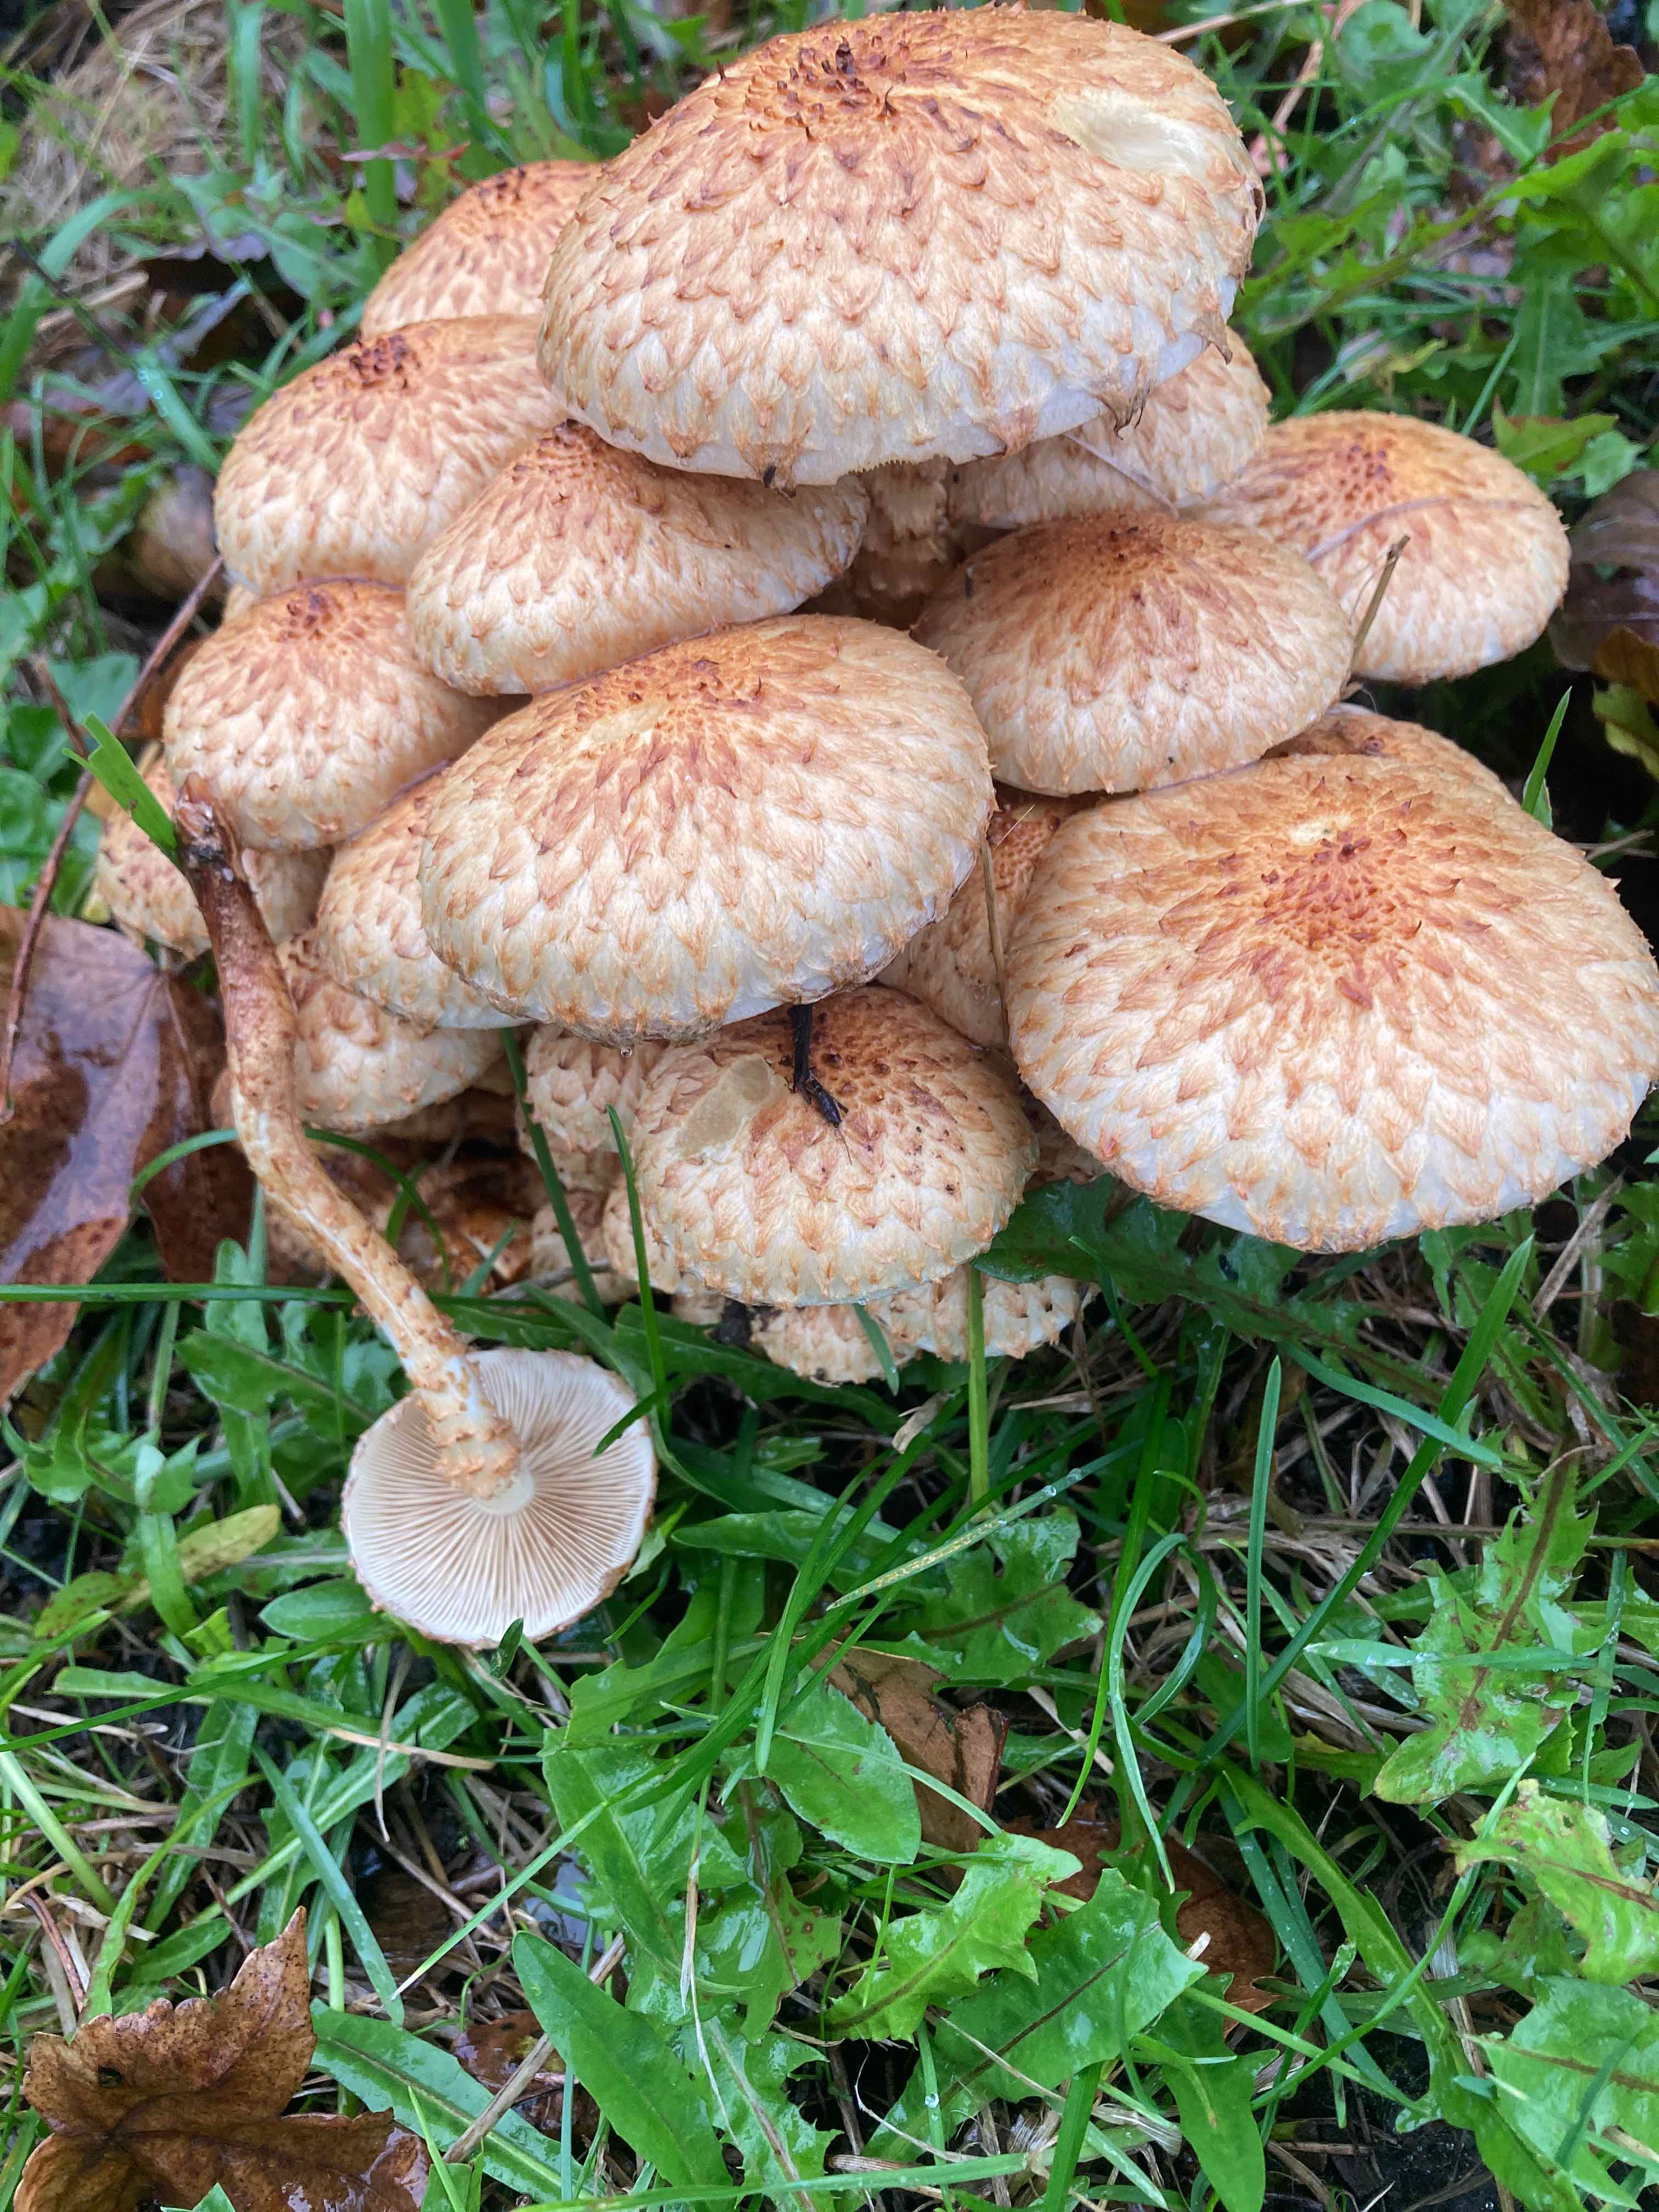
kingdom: Fungi
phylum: Basidiomycota
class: Agaricomycetes
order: Agaricales
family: Strophariaceae
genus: Pholiota
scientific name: Pholiota squarrosa
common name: krumskællet skælhat
